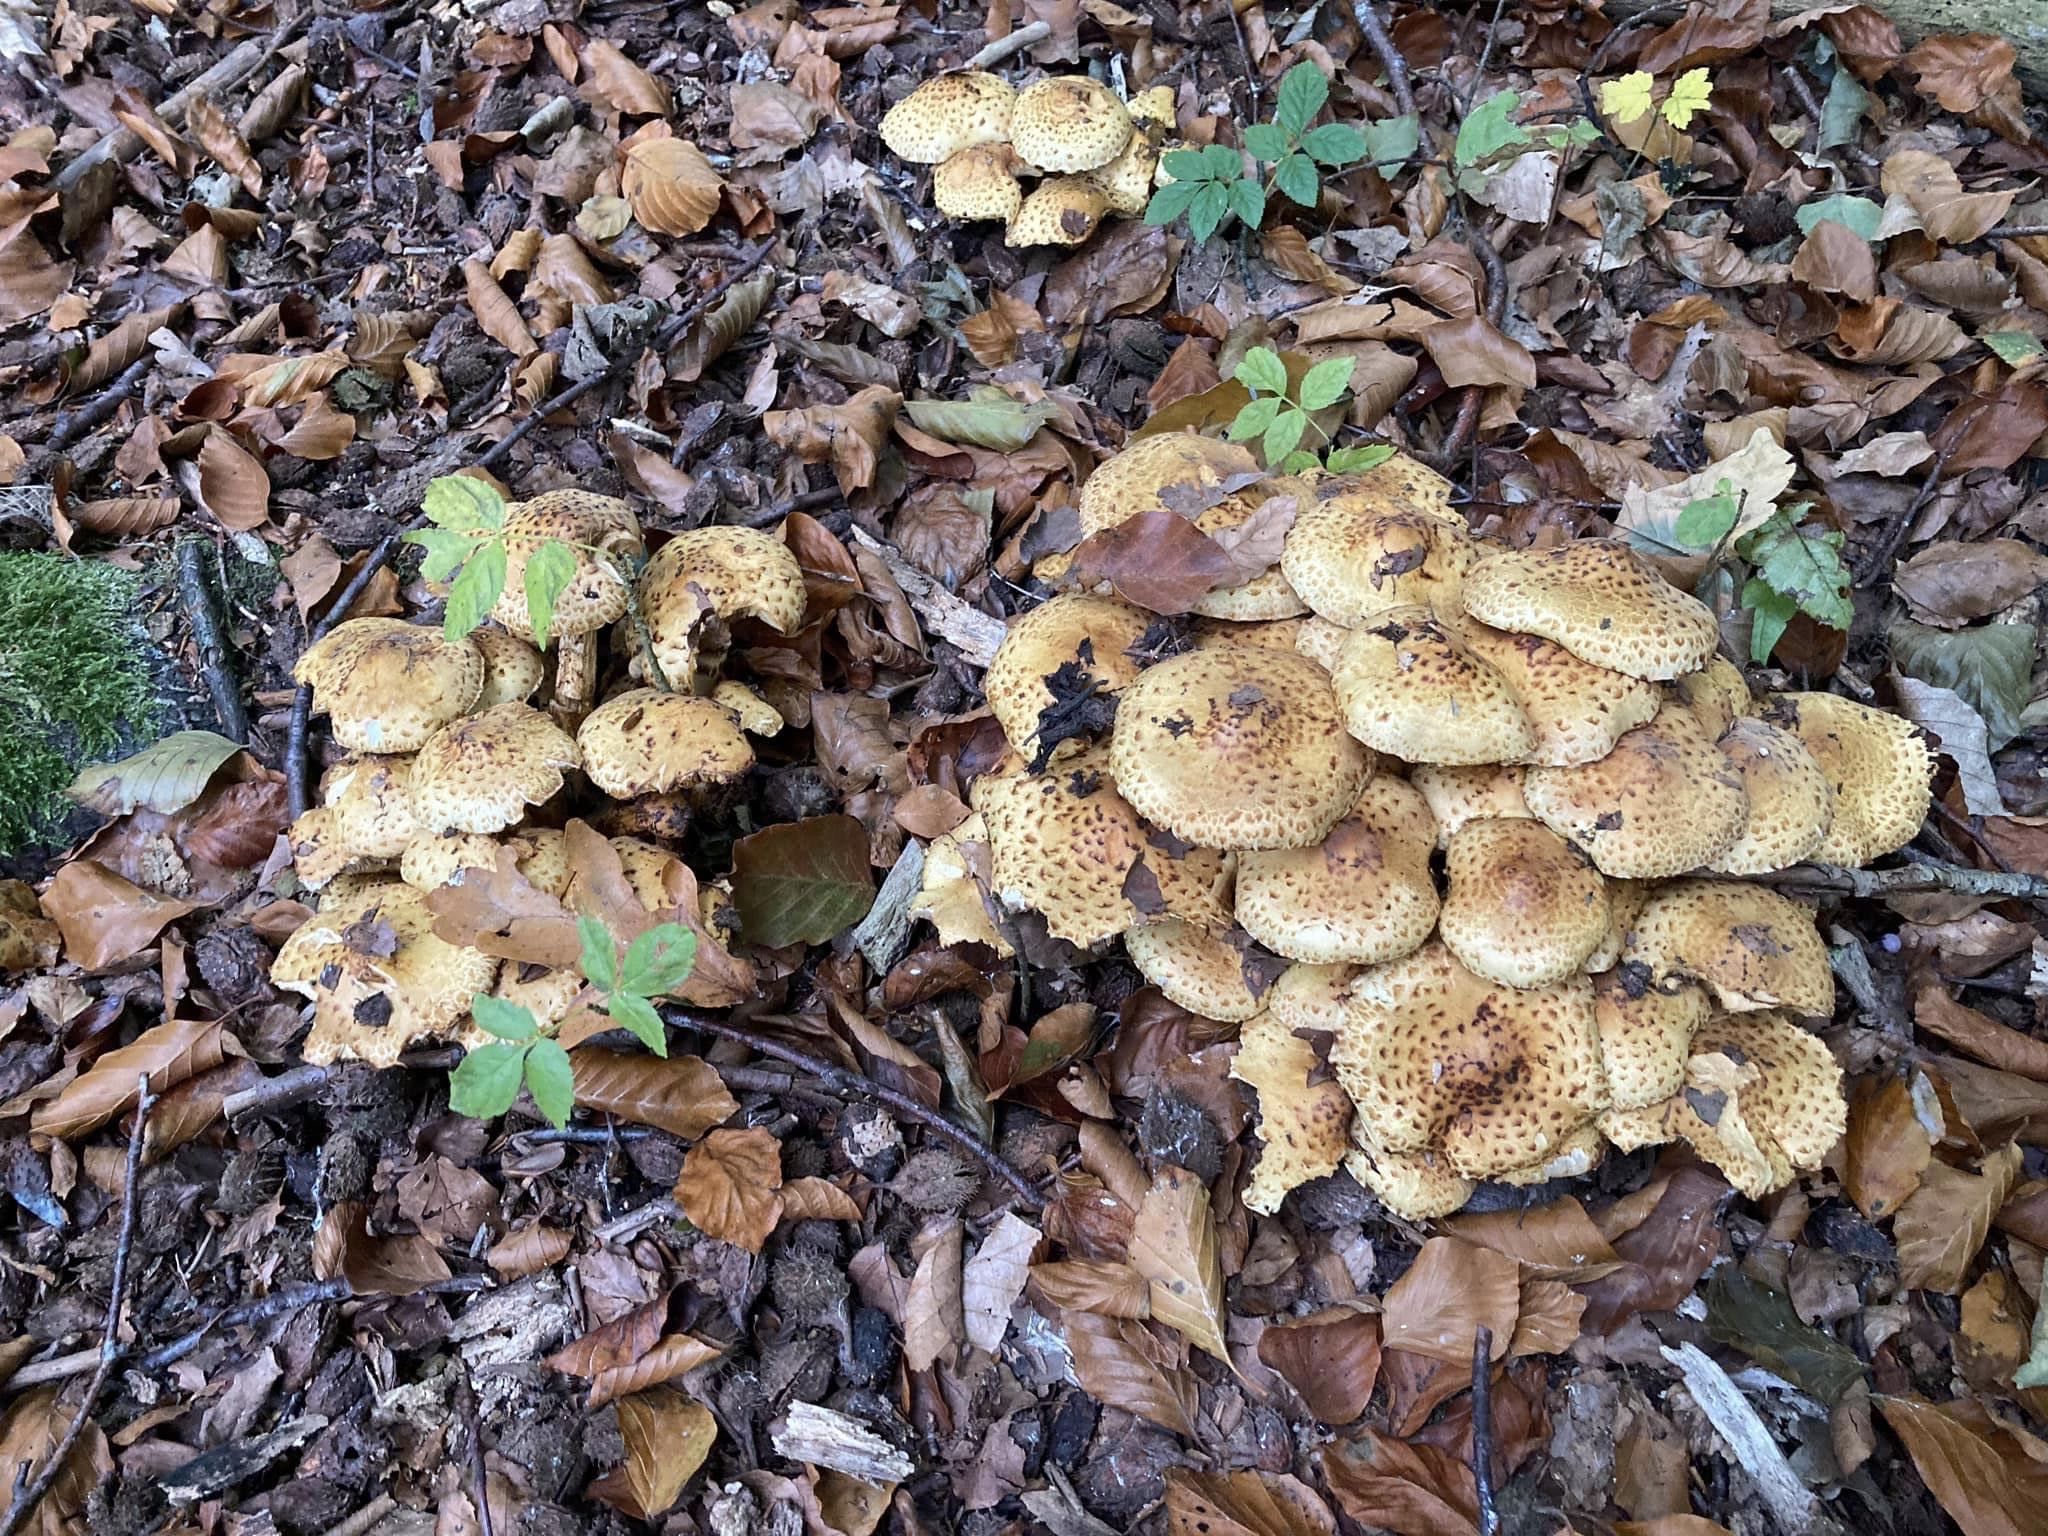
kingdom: Fungi
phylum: Basidiomycota
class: Agaricomycetes
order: Agaricales
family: Strophariaceae
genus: Pholiota
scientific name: Pholiota jahnii
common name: slimet skælhat
